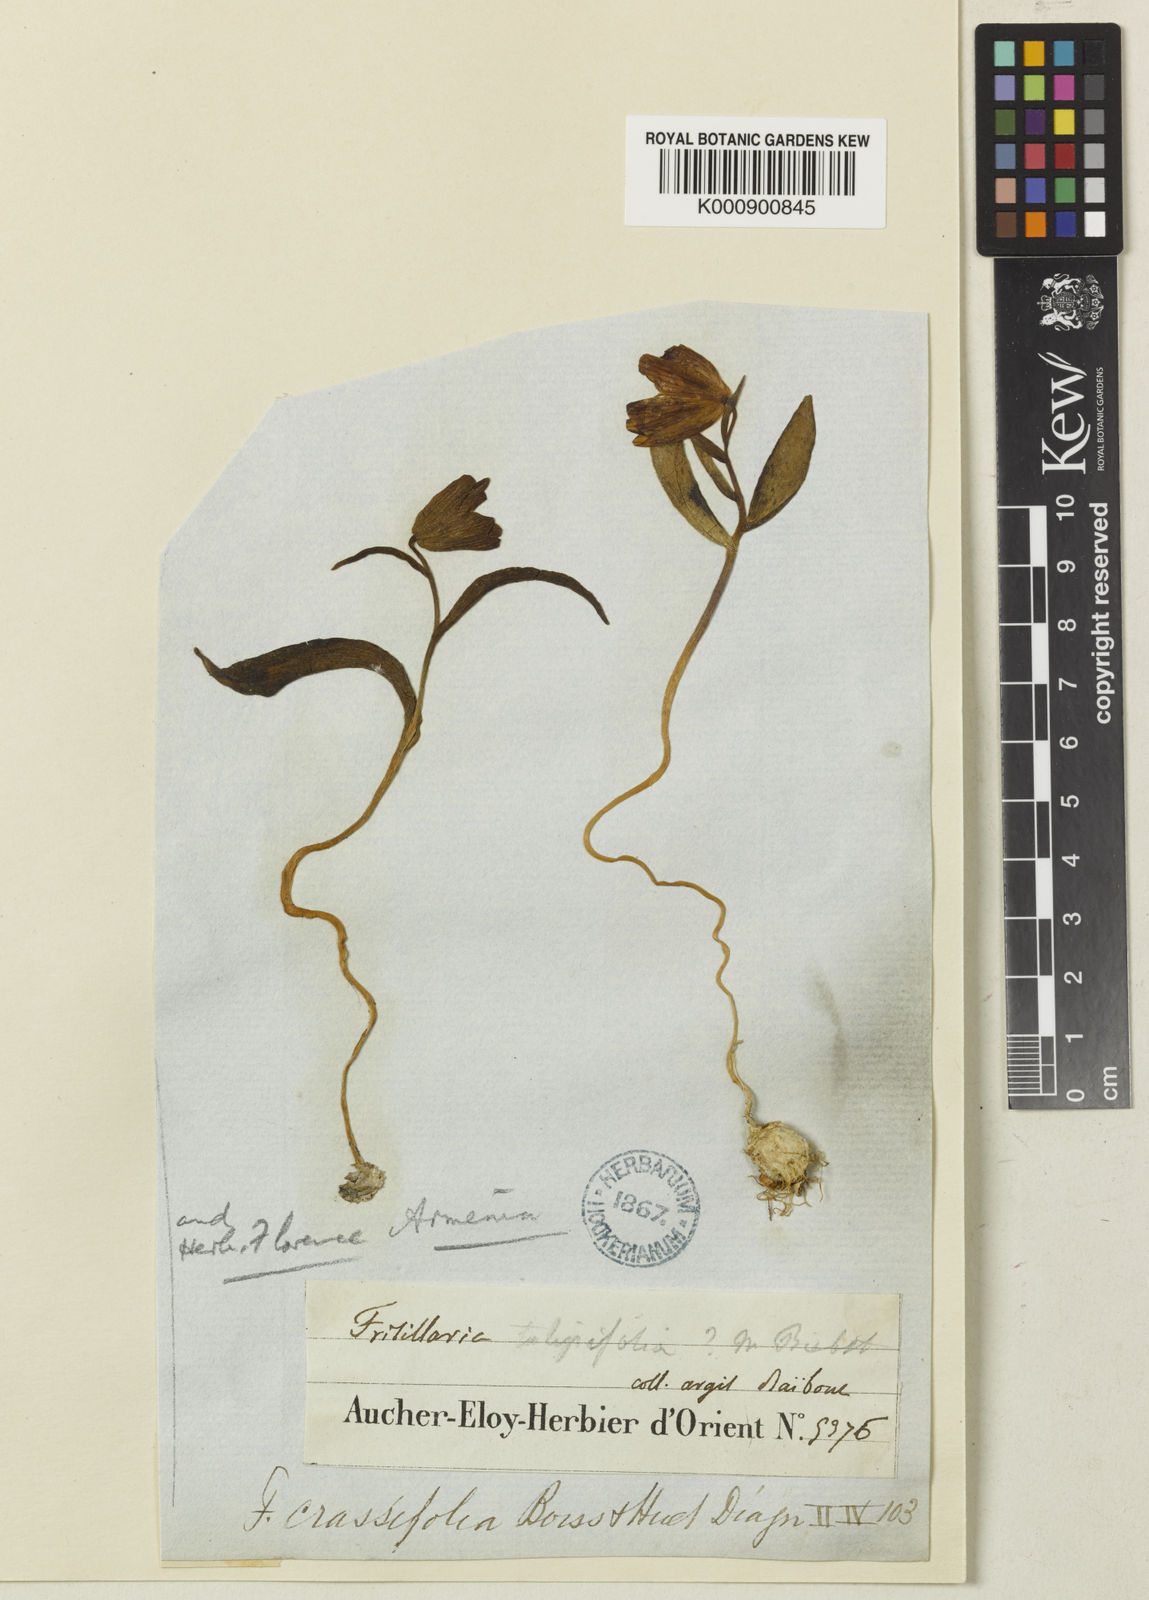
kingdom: Plantae
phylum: Tracheophyta
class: Liliopsida
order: Liliales
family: Liliaceae
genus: Fritillaria
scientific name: Fritillaria crassifolia
